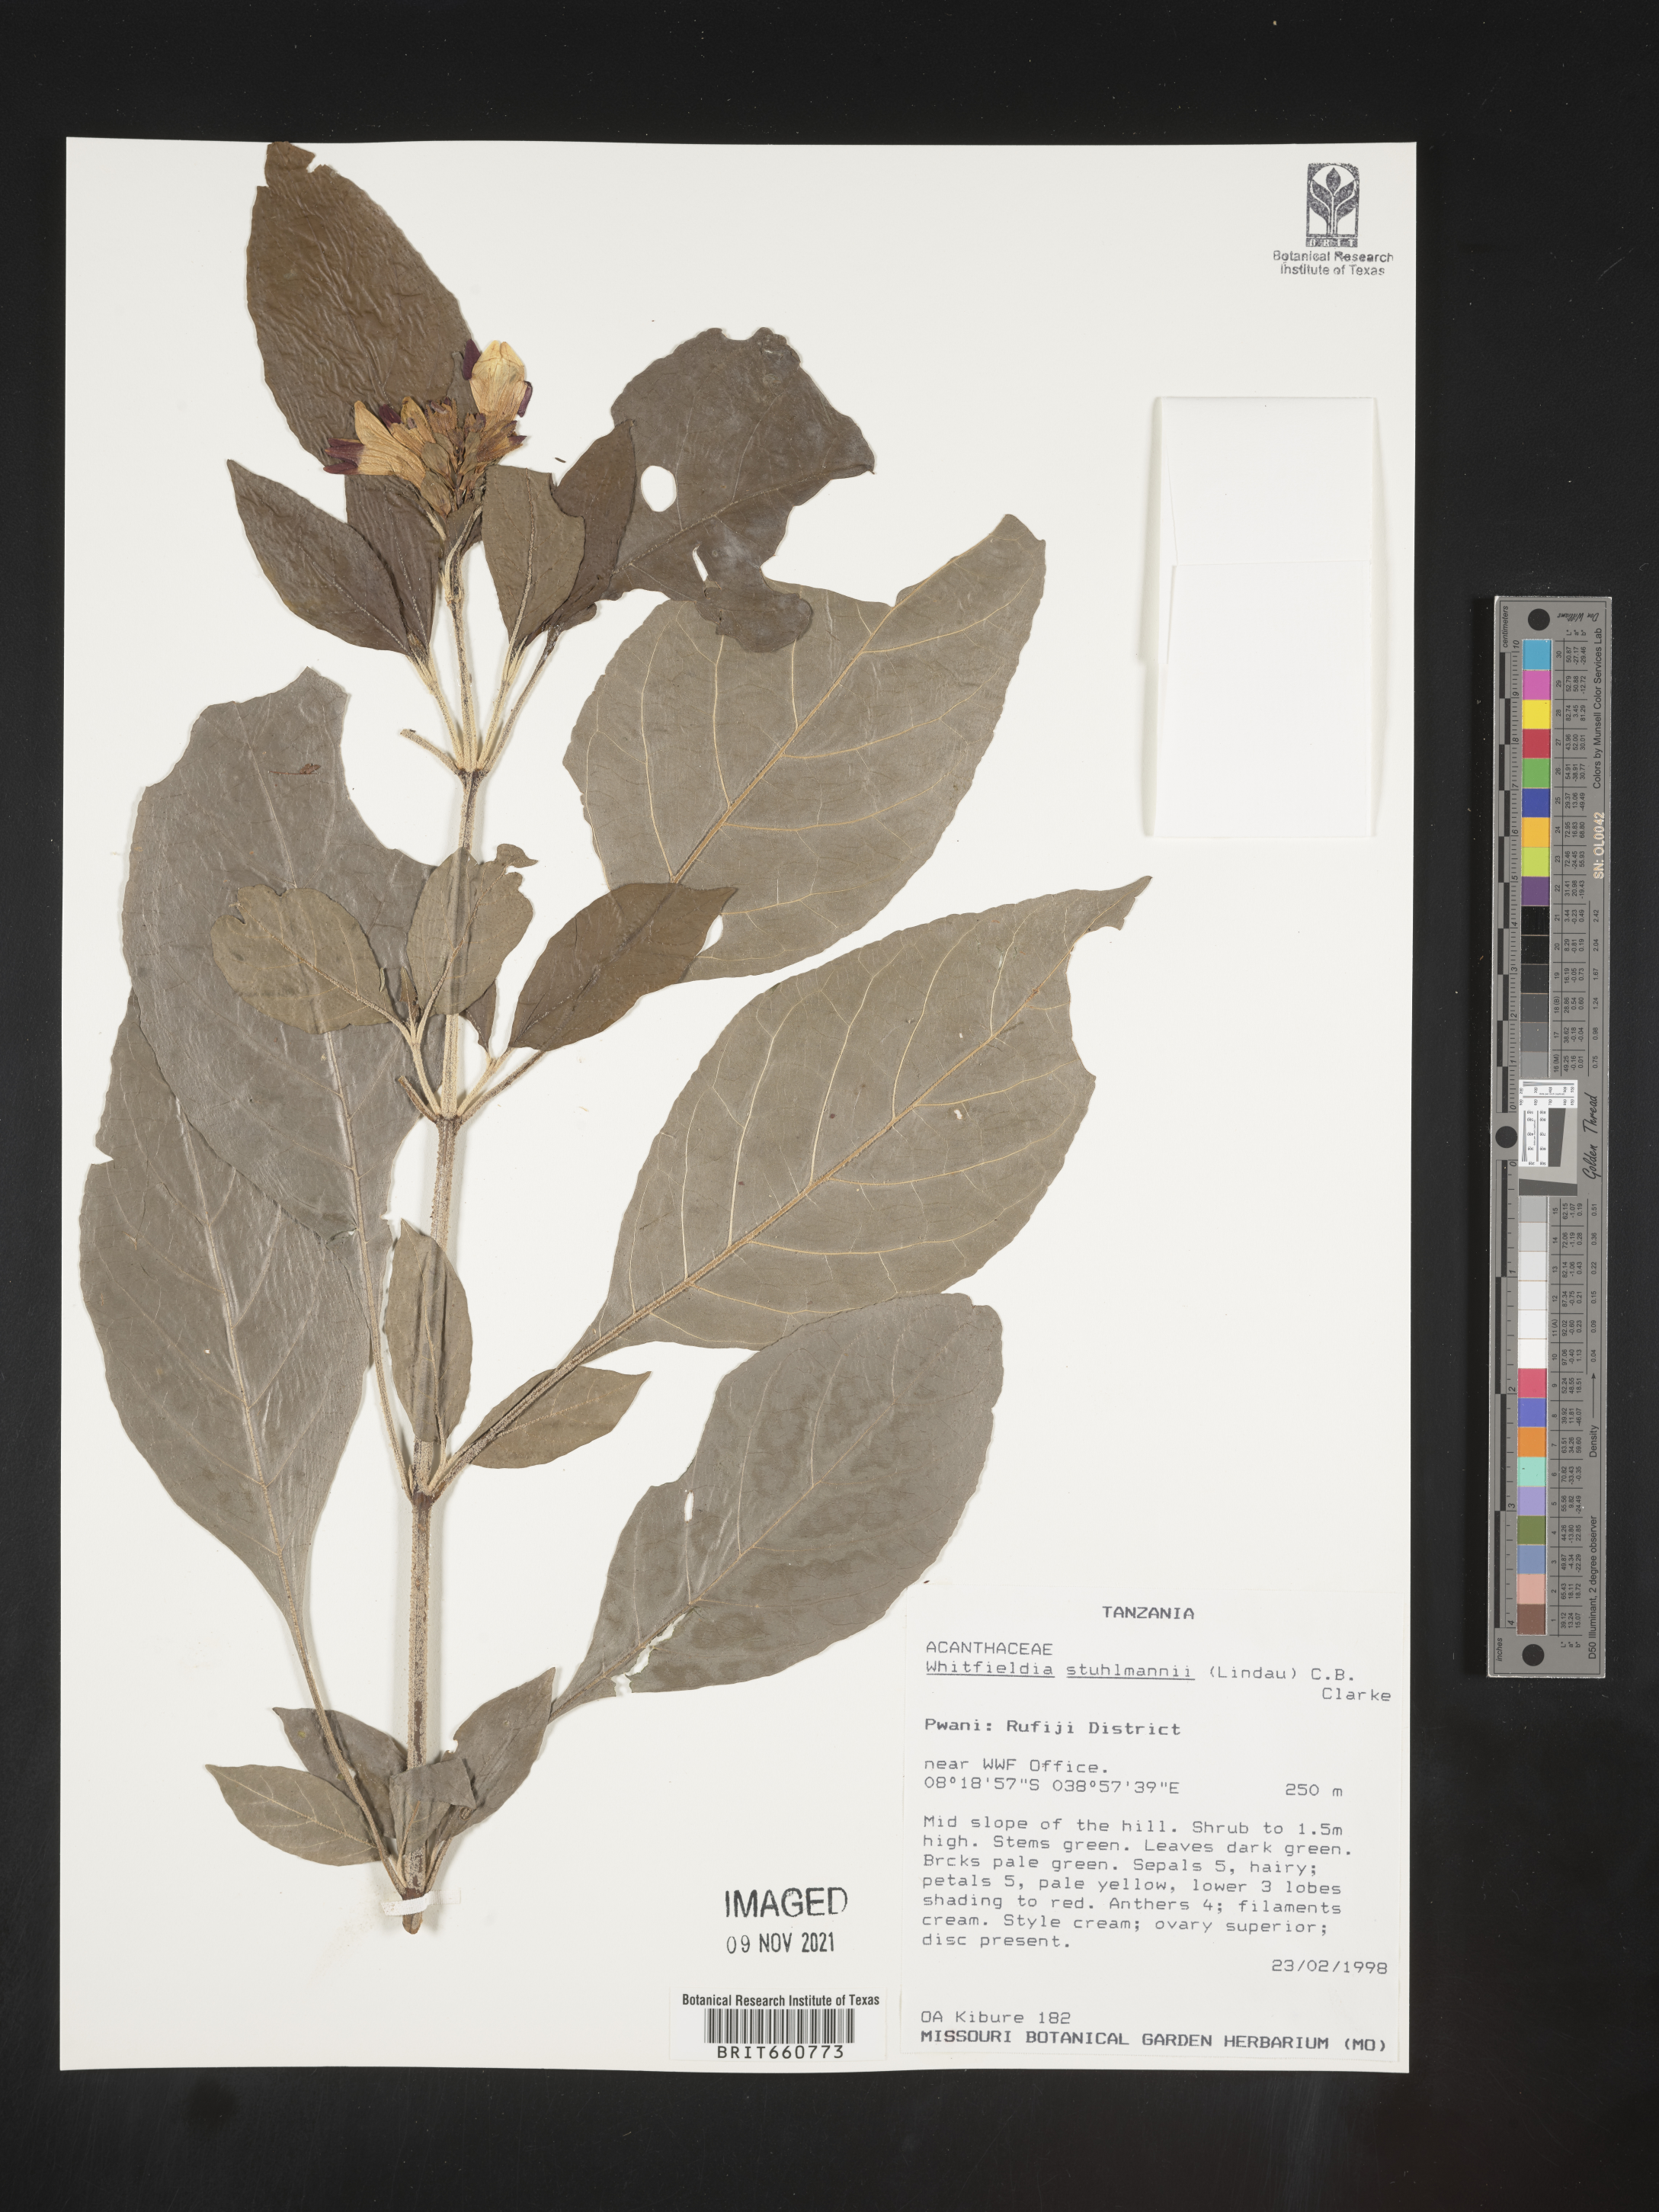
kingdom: Plantae
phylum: Tracheophyta
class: Magnoliopsida
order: Lamiales
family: Acanthaceae
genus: Whitfieldia
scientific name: Whitfieldia
